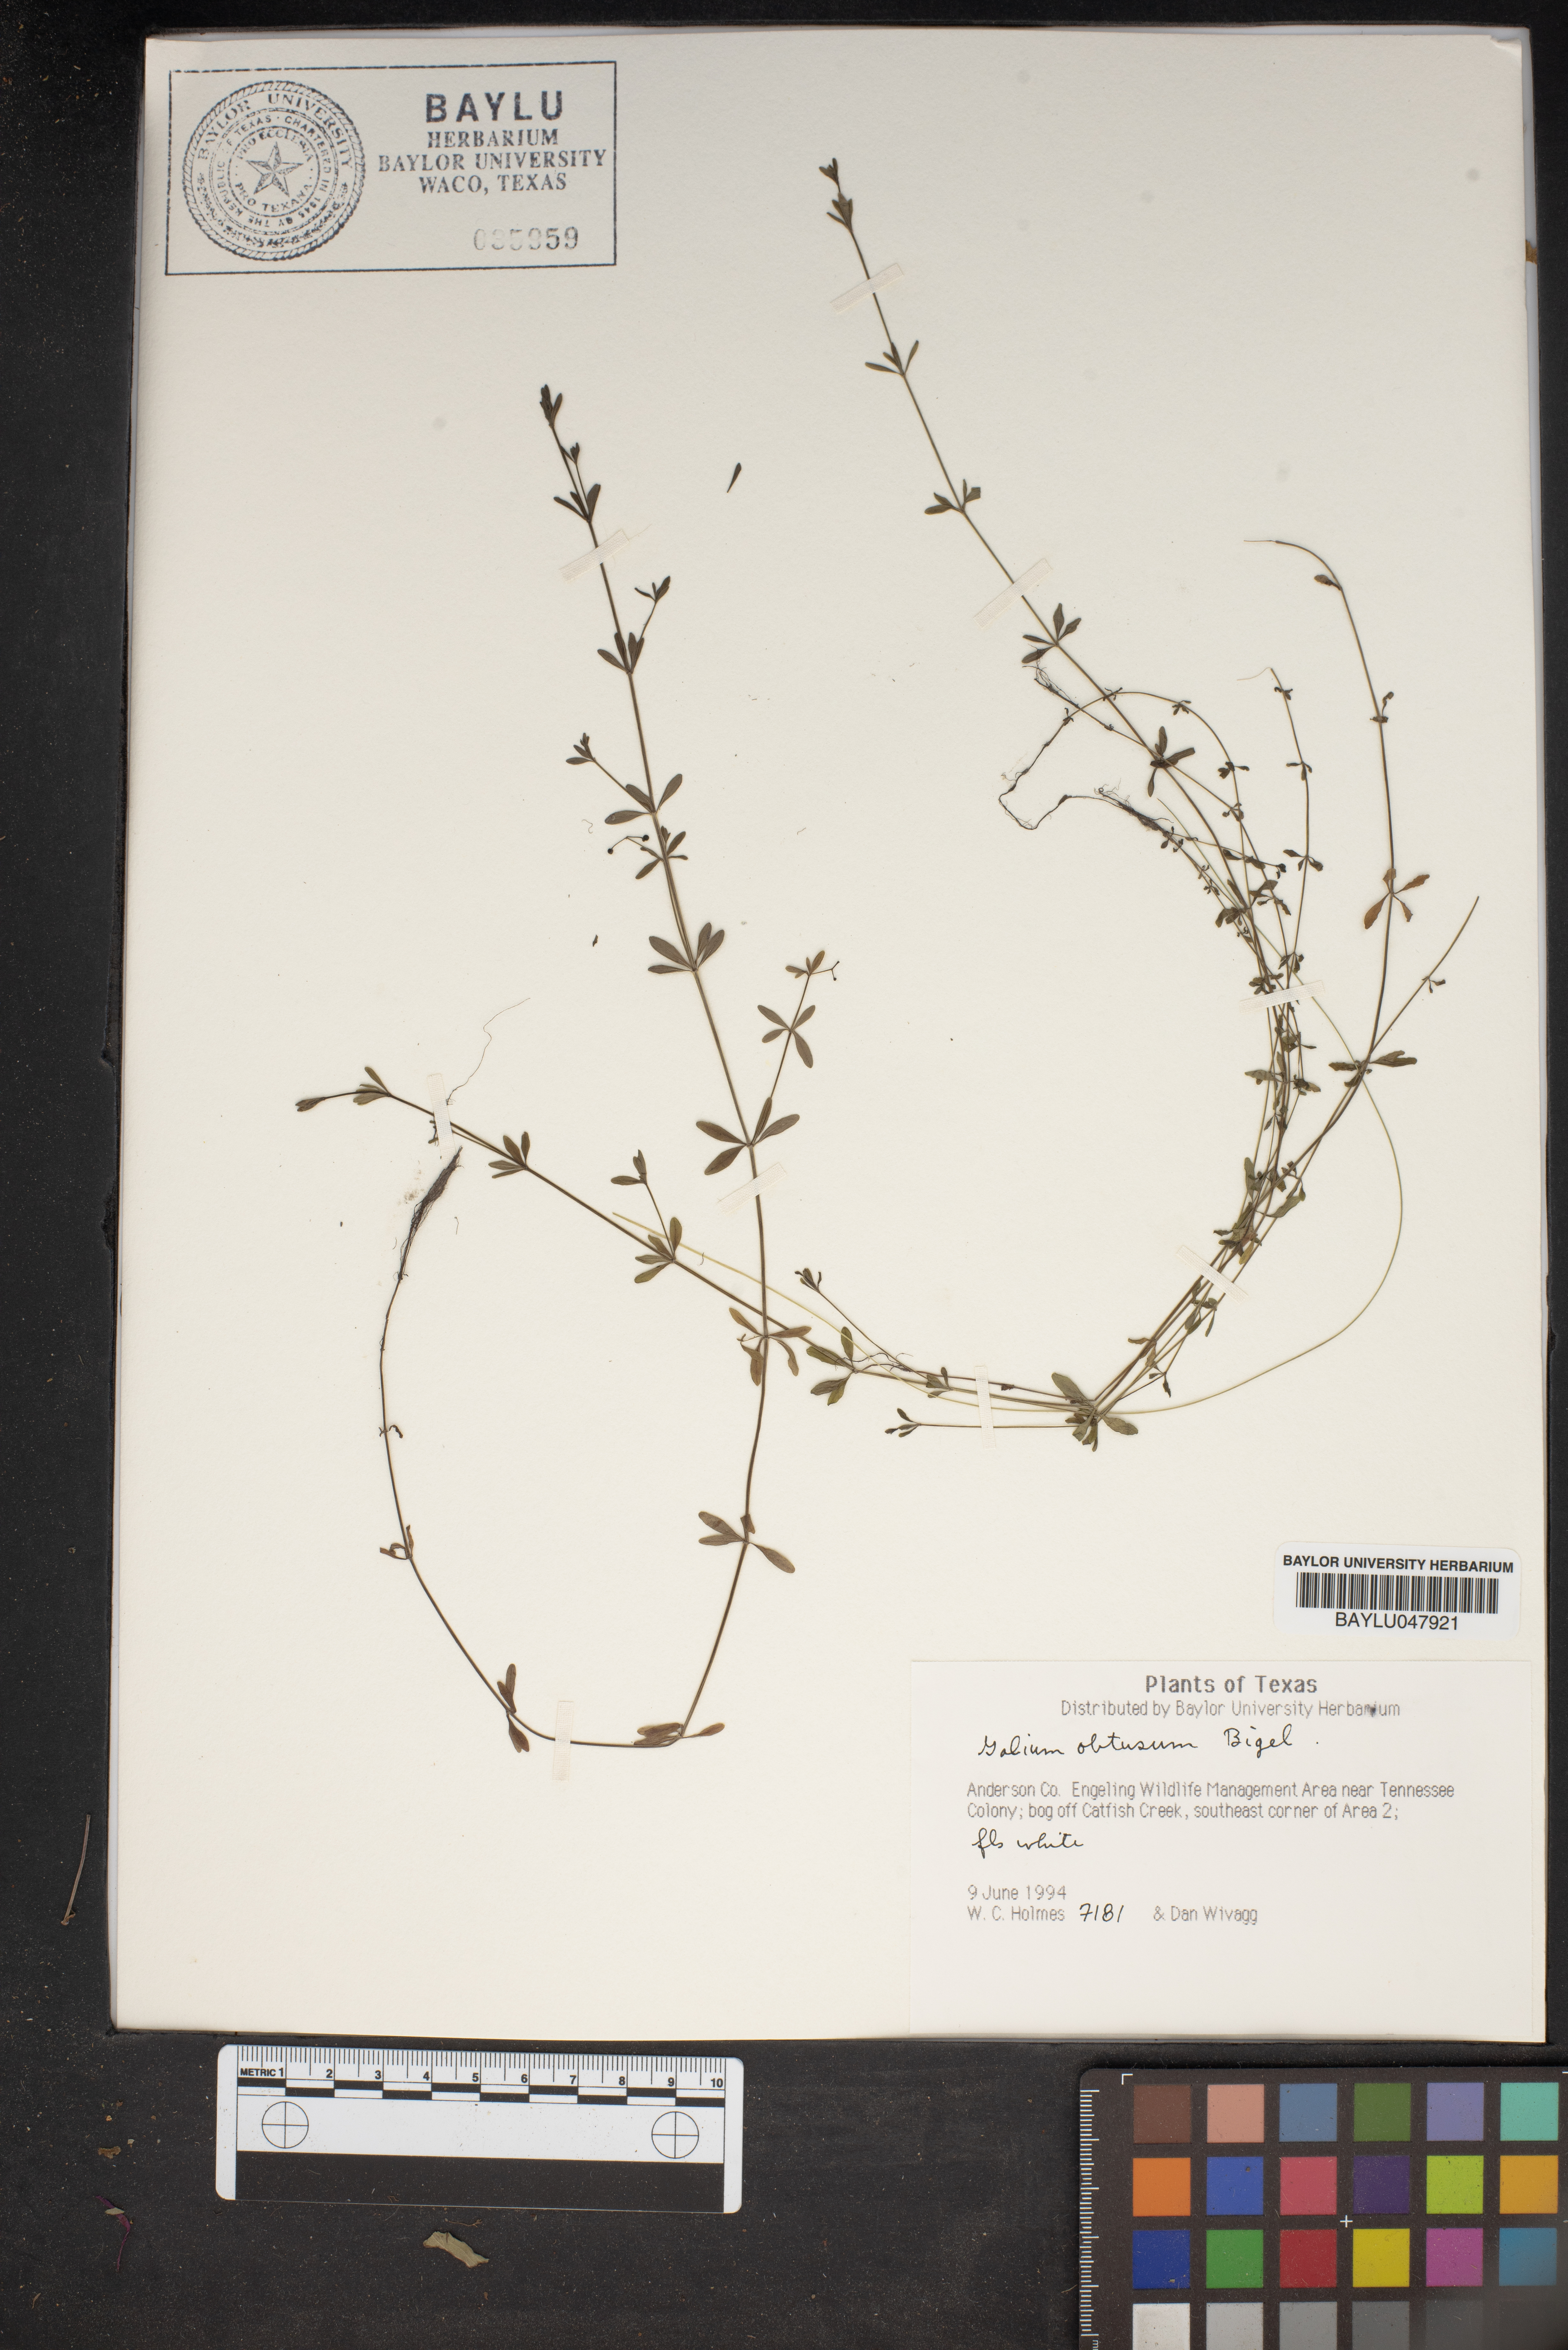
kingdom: Plantae
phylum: Tracheophyta
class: Magnoliopsida
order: Gentianales
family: Rubiaceae
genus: Galium
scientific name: Galium obtusum
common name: Blunt-leaved bedstraw
